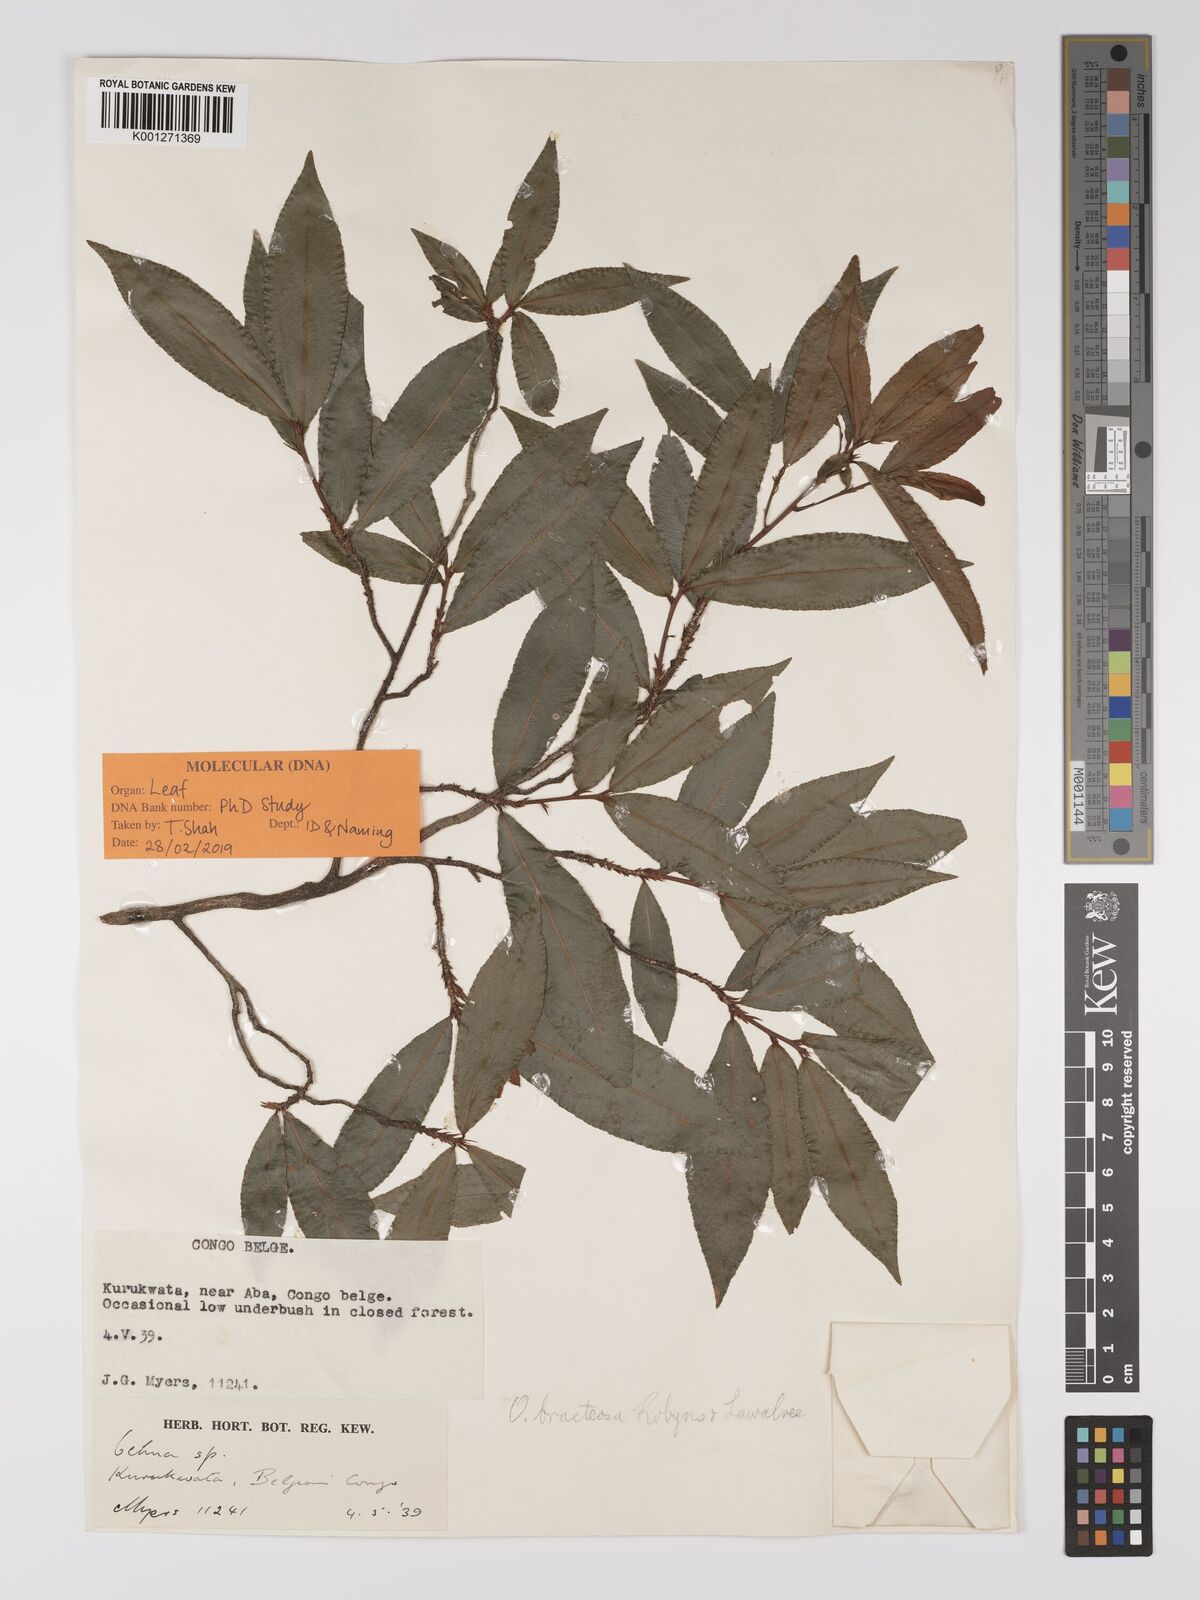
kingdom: Plantae
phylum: Tracheophyta
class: Magnoliopsida
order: Malpighiales
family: Ochnaceae
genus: Ochna
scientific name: Ochna bracteosa
